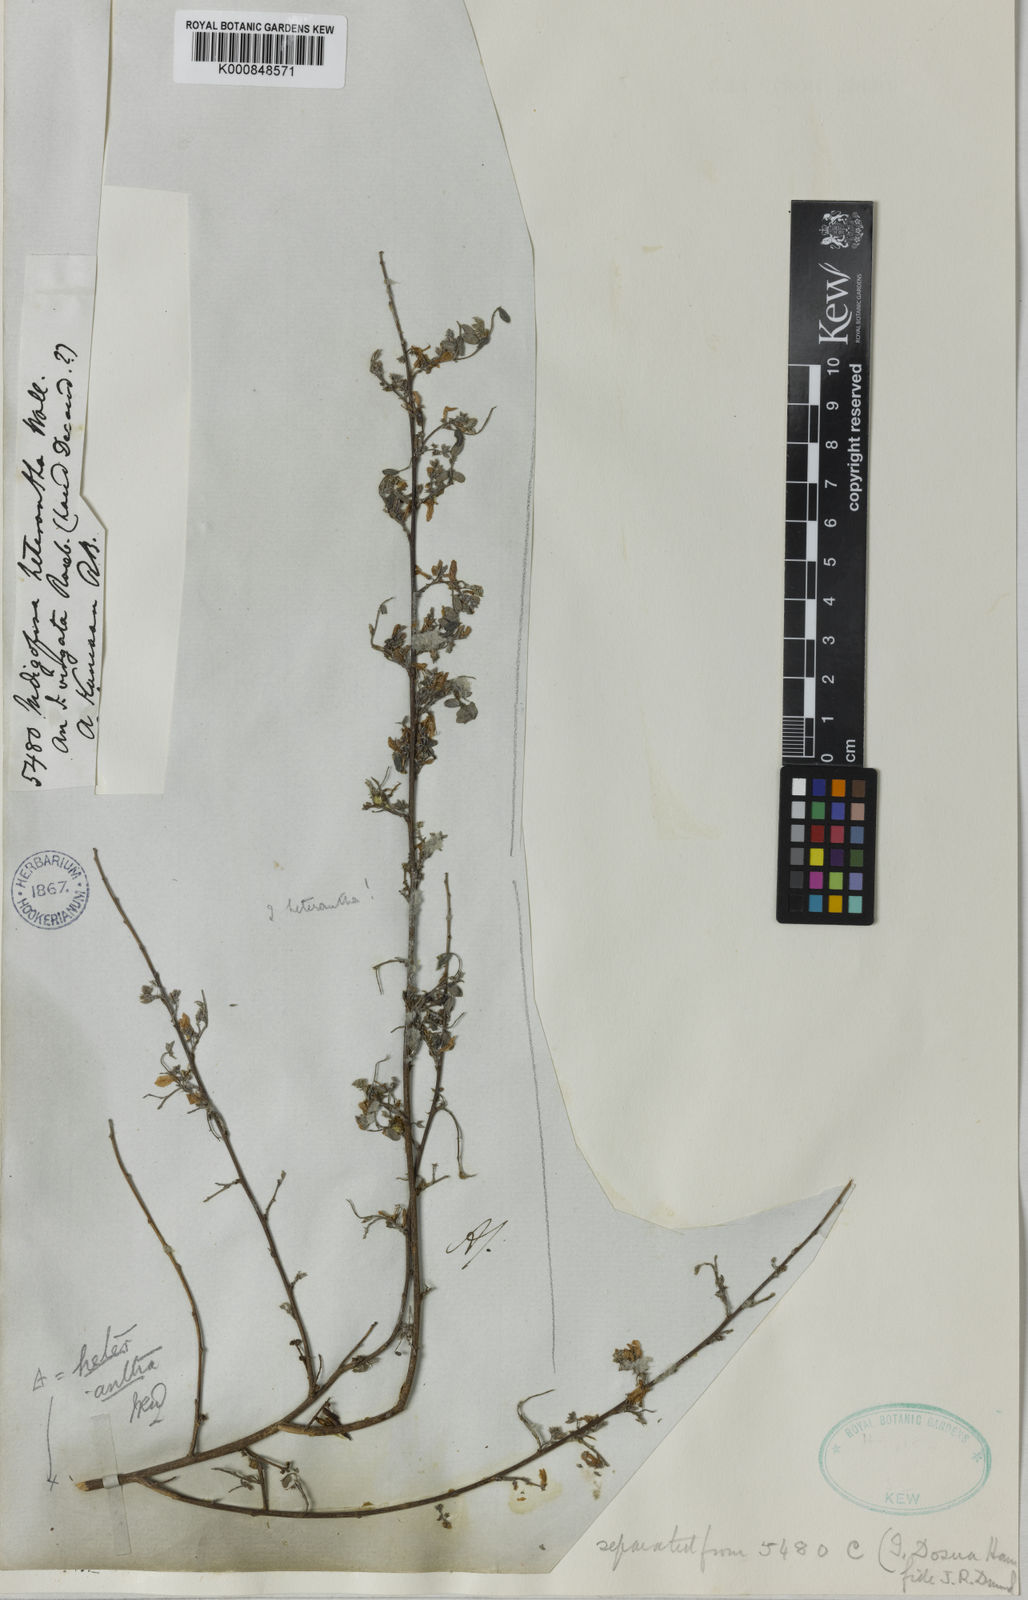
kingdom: Plantae
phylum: Tracheophyta
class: Magnoliopsida
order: Fabales
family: Fabaceae
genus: Indigofera
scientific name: Indigofera trigonelloides
